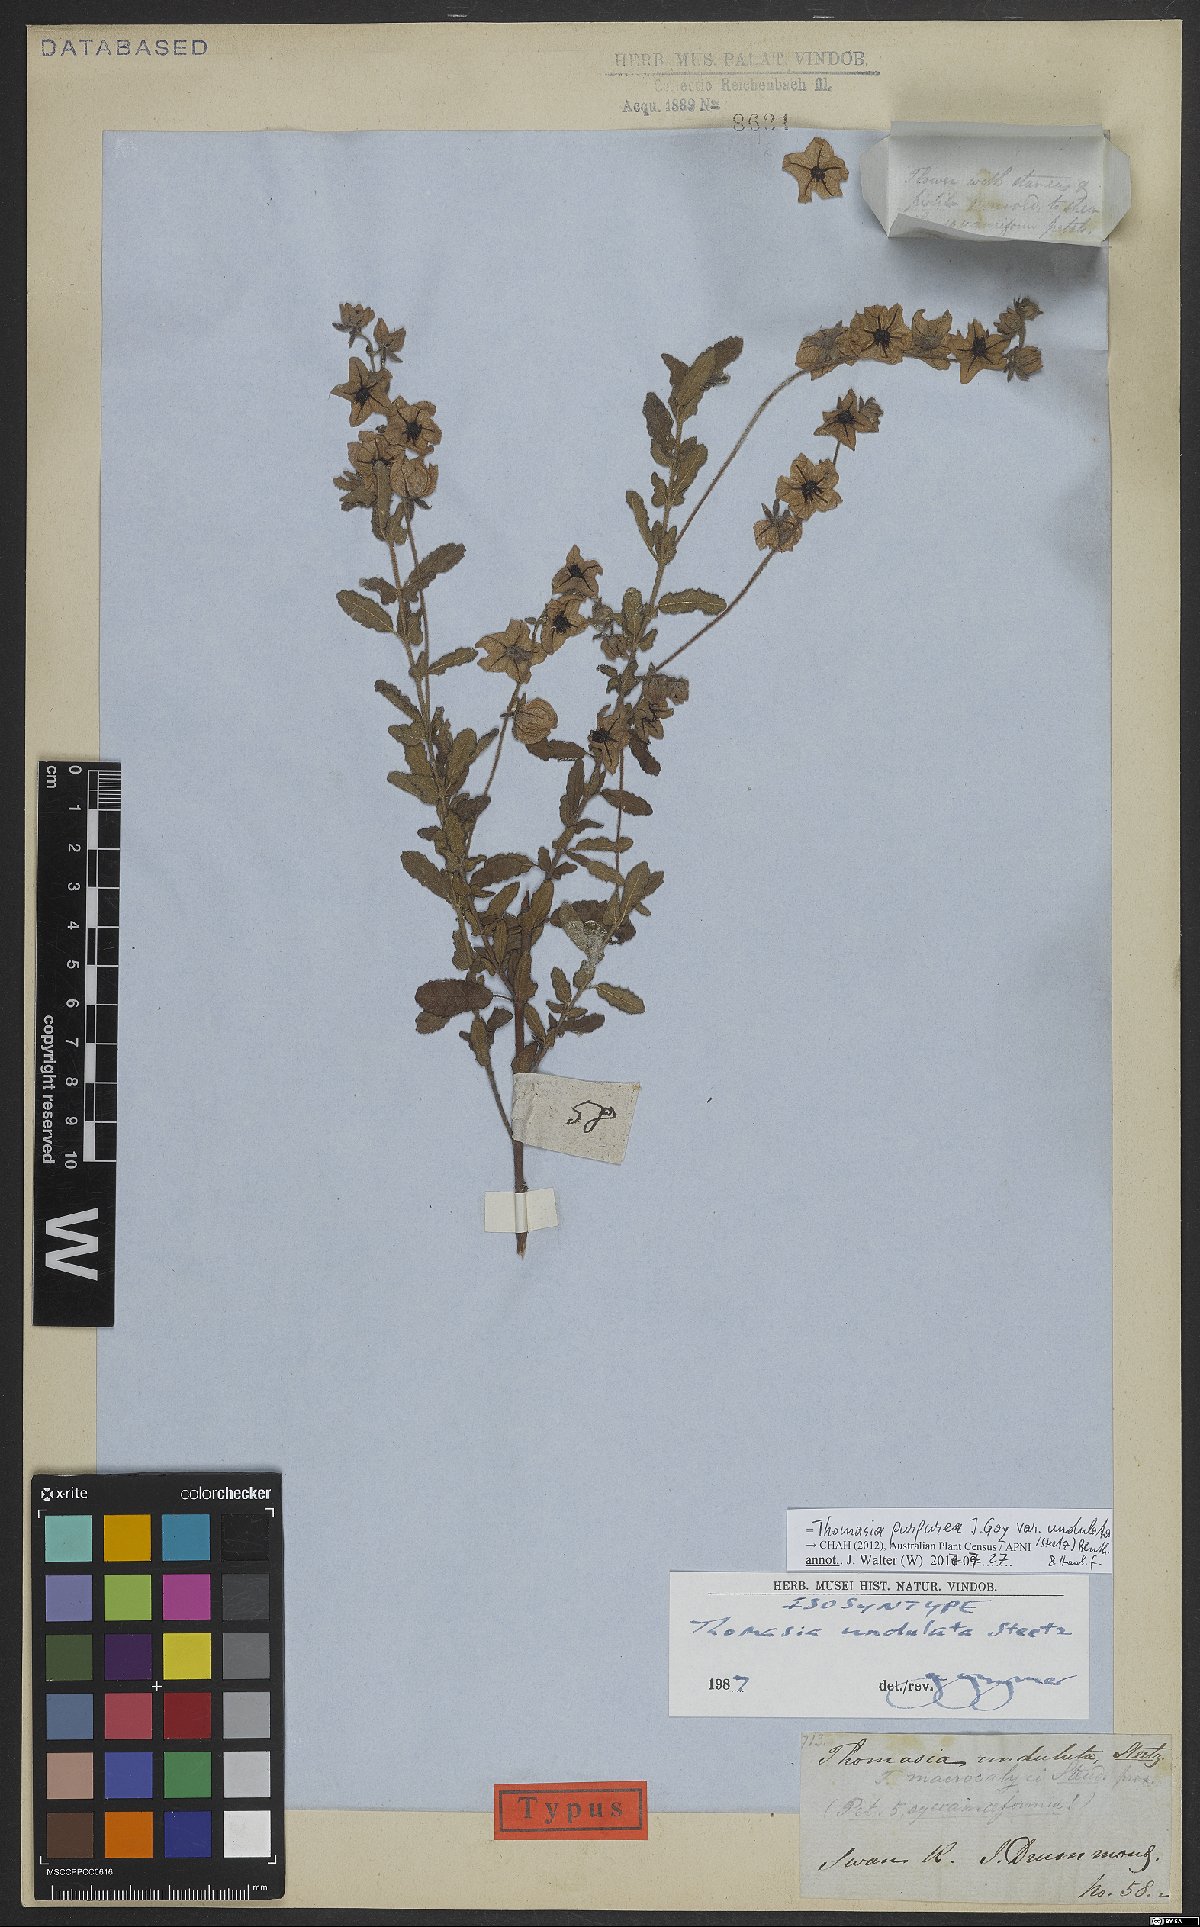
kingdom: Plantae
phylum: Tracheophyta
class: Magnoliopsida
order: Malvales
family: Malvaceae
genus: Thomasia
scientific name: Thomasia purpurea
